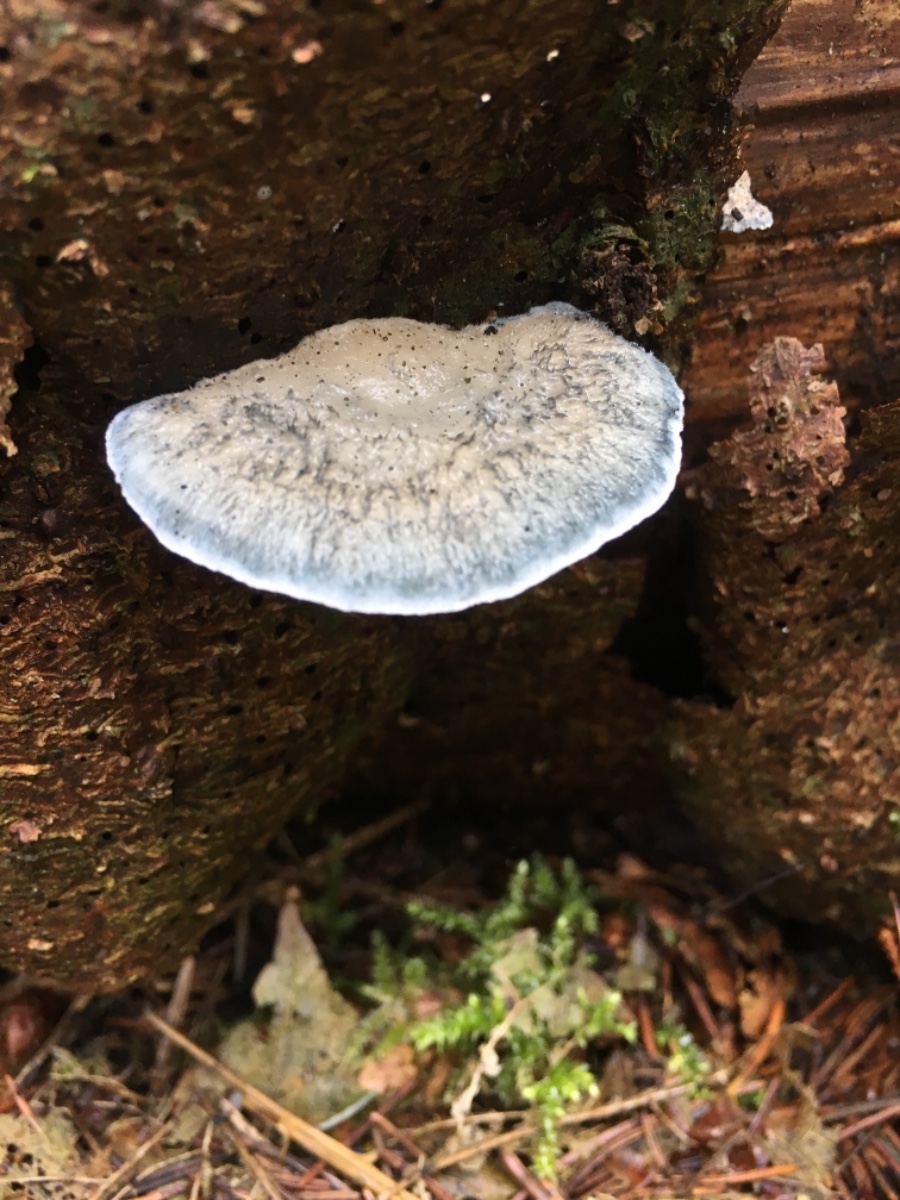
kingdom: Fungi
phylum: Basidiomycota
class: Agaricomycetes
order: Polyporales
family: Polyporaceae
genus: Cyanosporus
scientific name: Cyanosporus caesius
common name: blålig kødporesvamp
